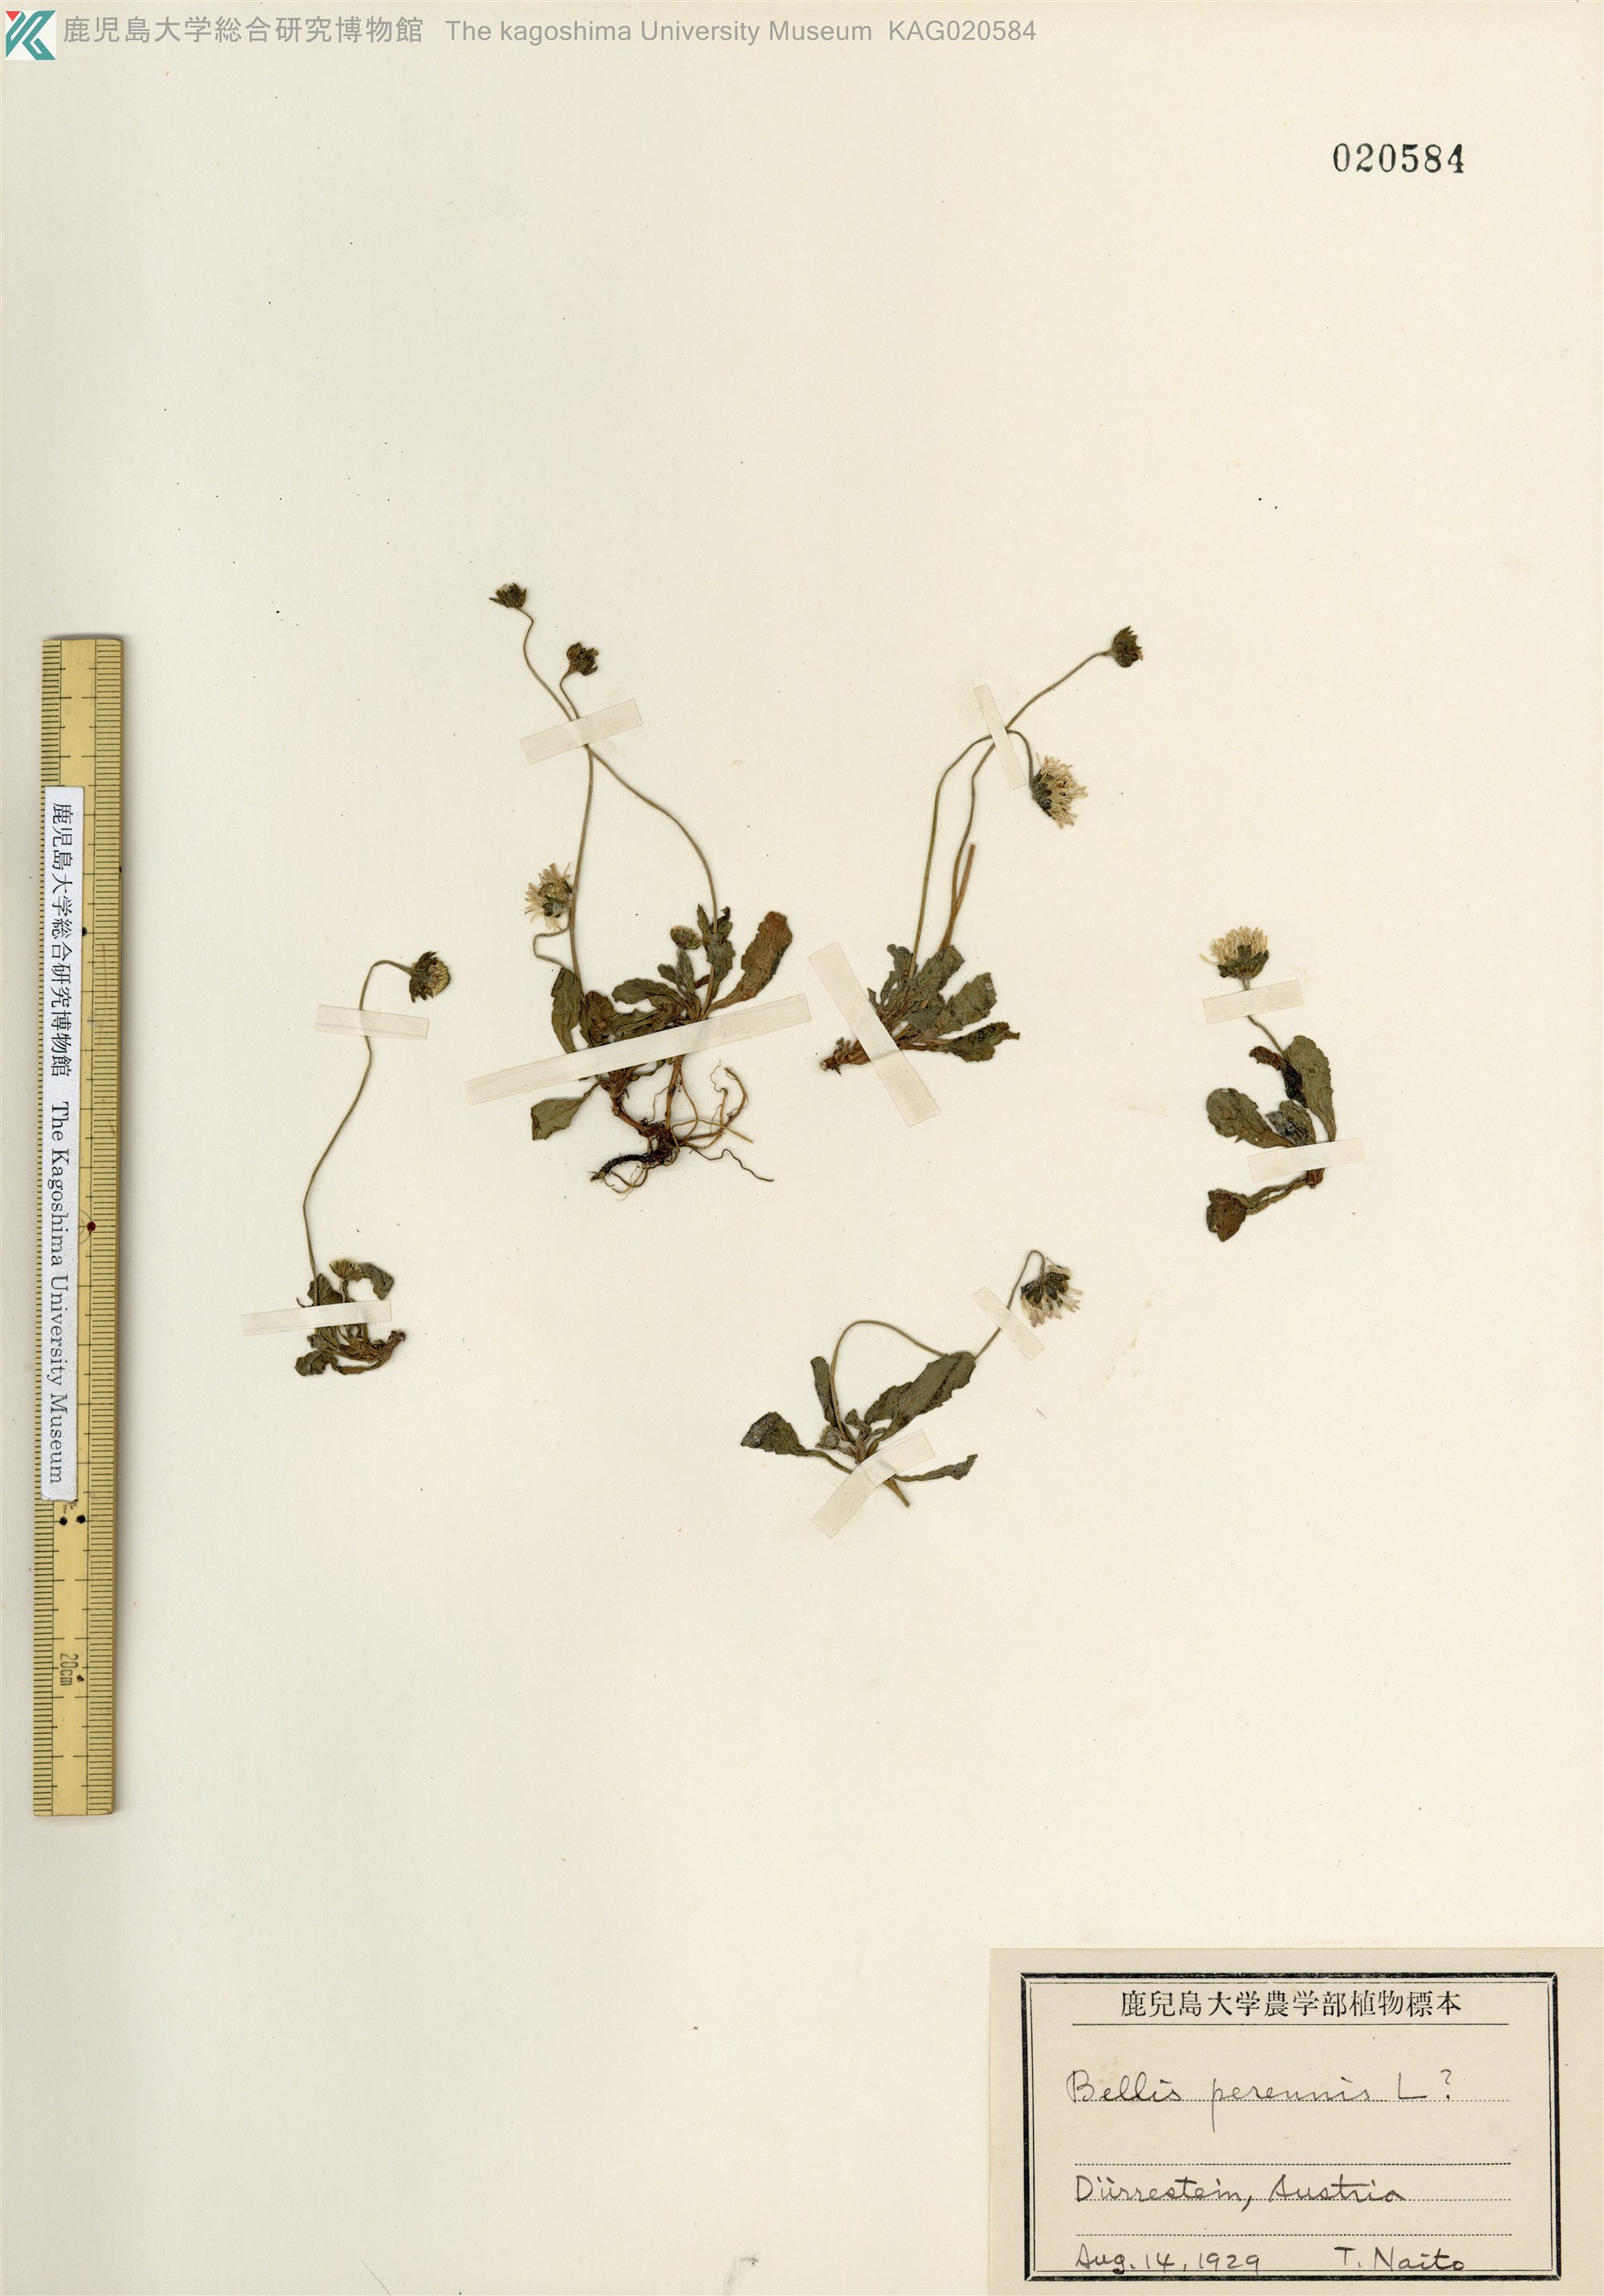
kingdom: Plantae
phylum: Tracheophyta
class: Magnoliopsida
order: Asterales
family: Asteraceae
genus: Bellis
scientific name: Bellis perennis
